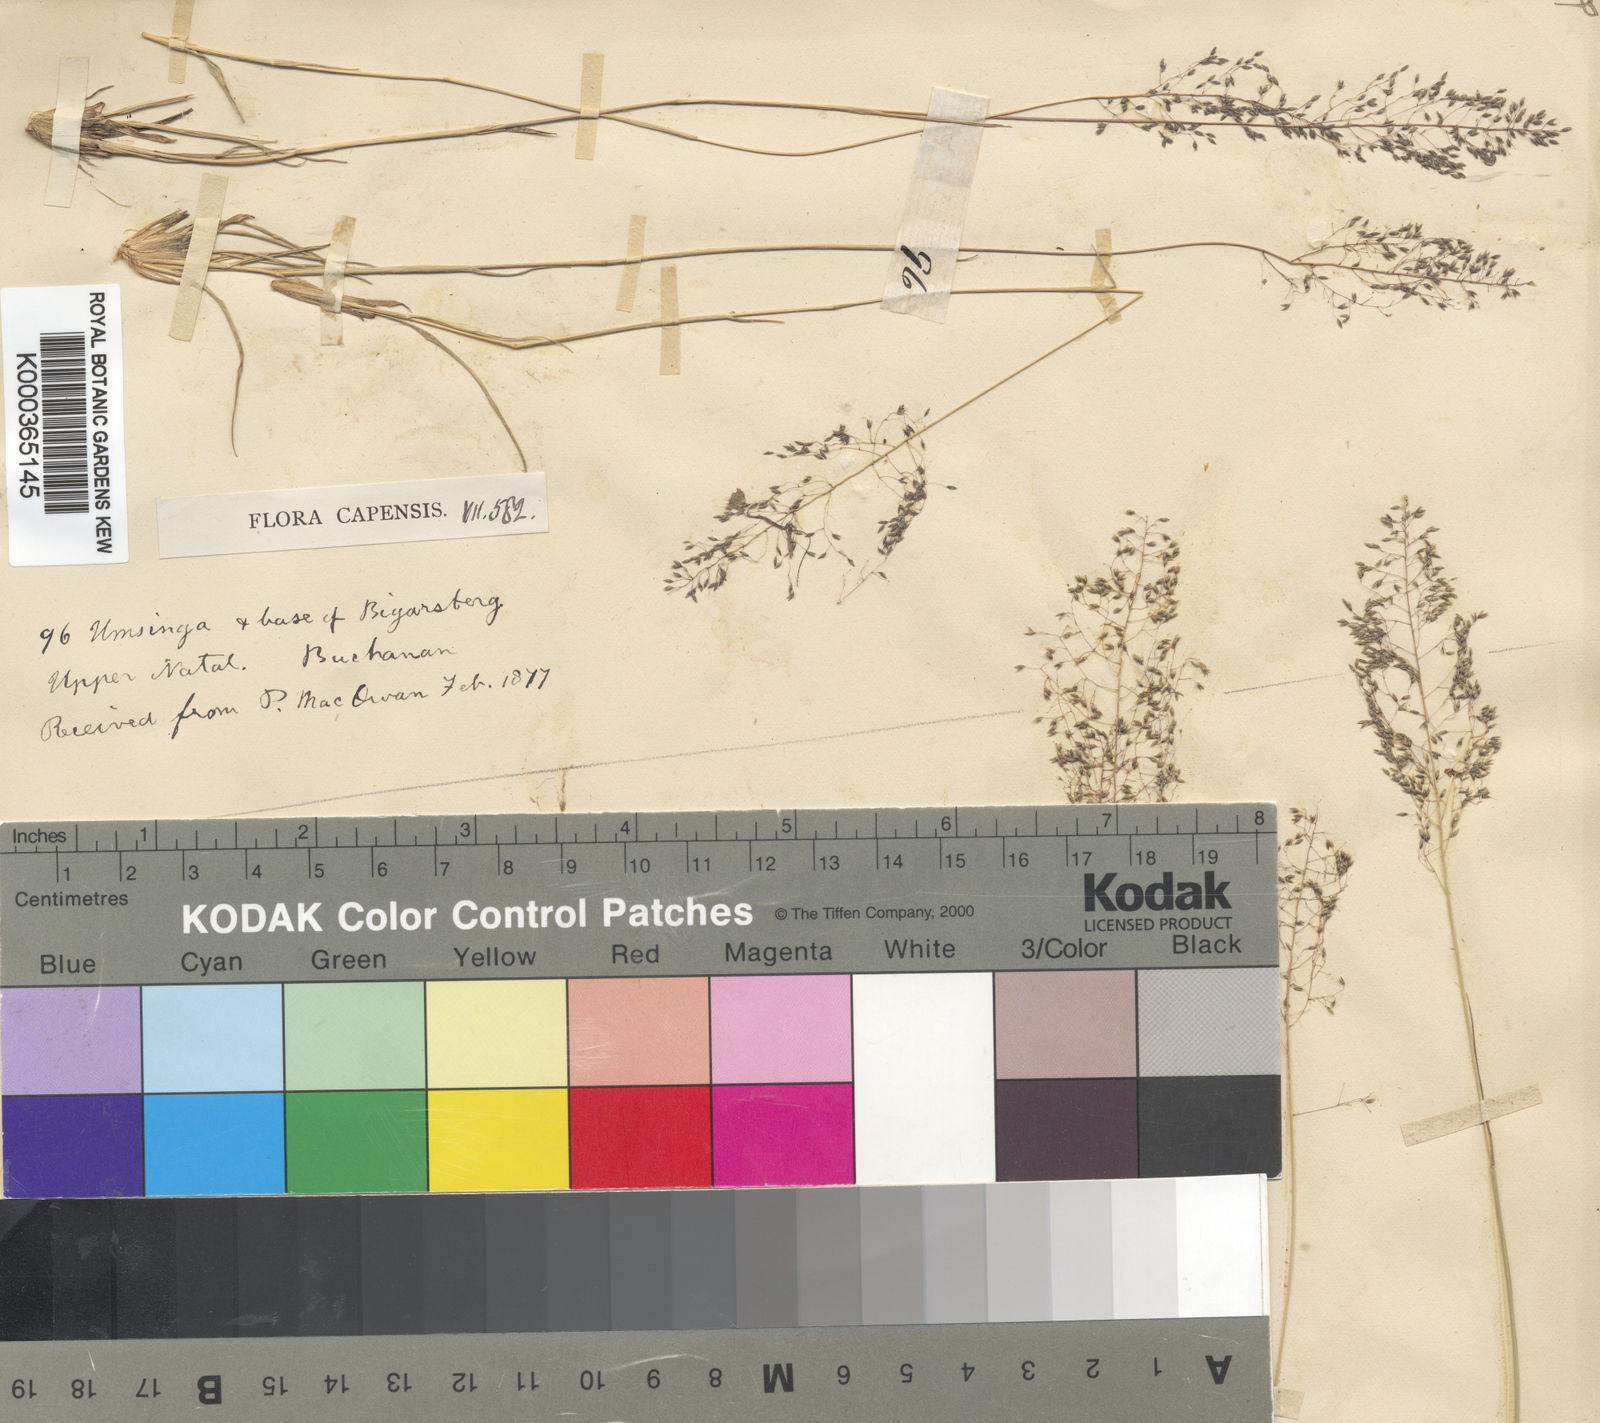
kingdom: Plantae
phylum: Tracheophyta
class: Liliopsida
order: Poales
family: Poaceae
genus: Sporobolus
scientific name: Sporobolus stapfianus
